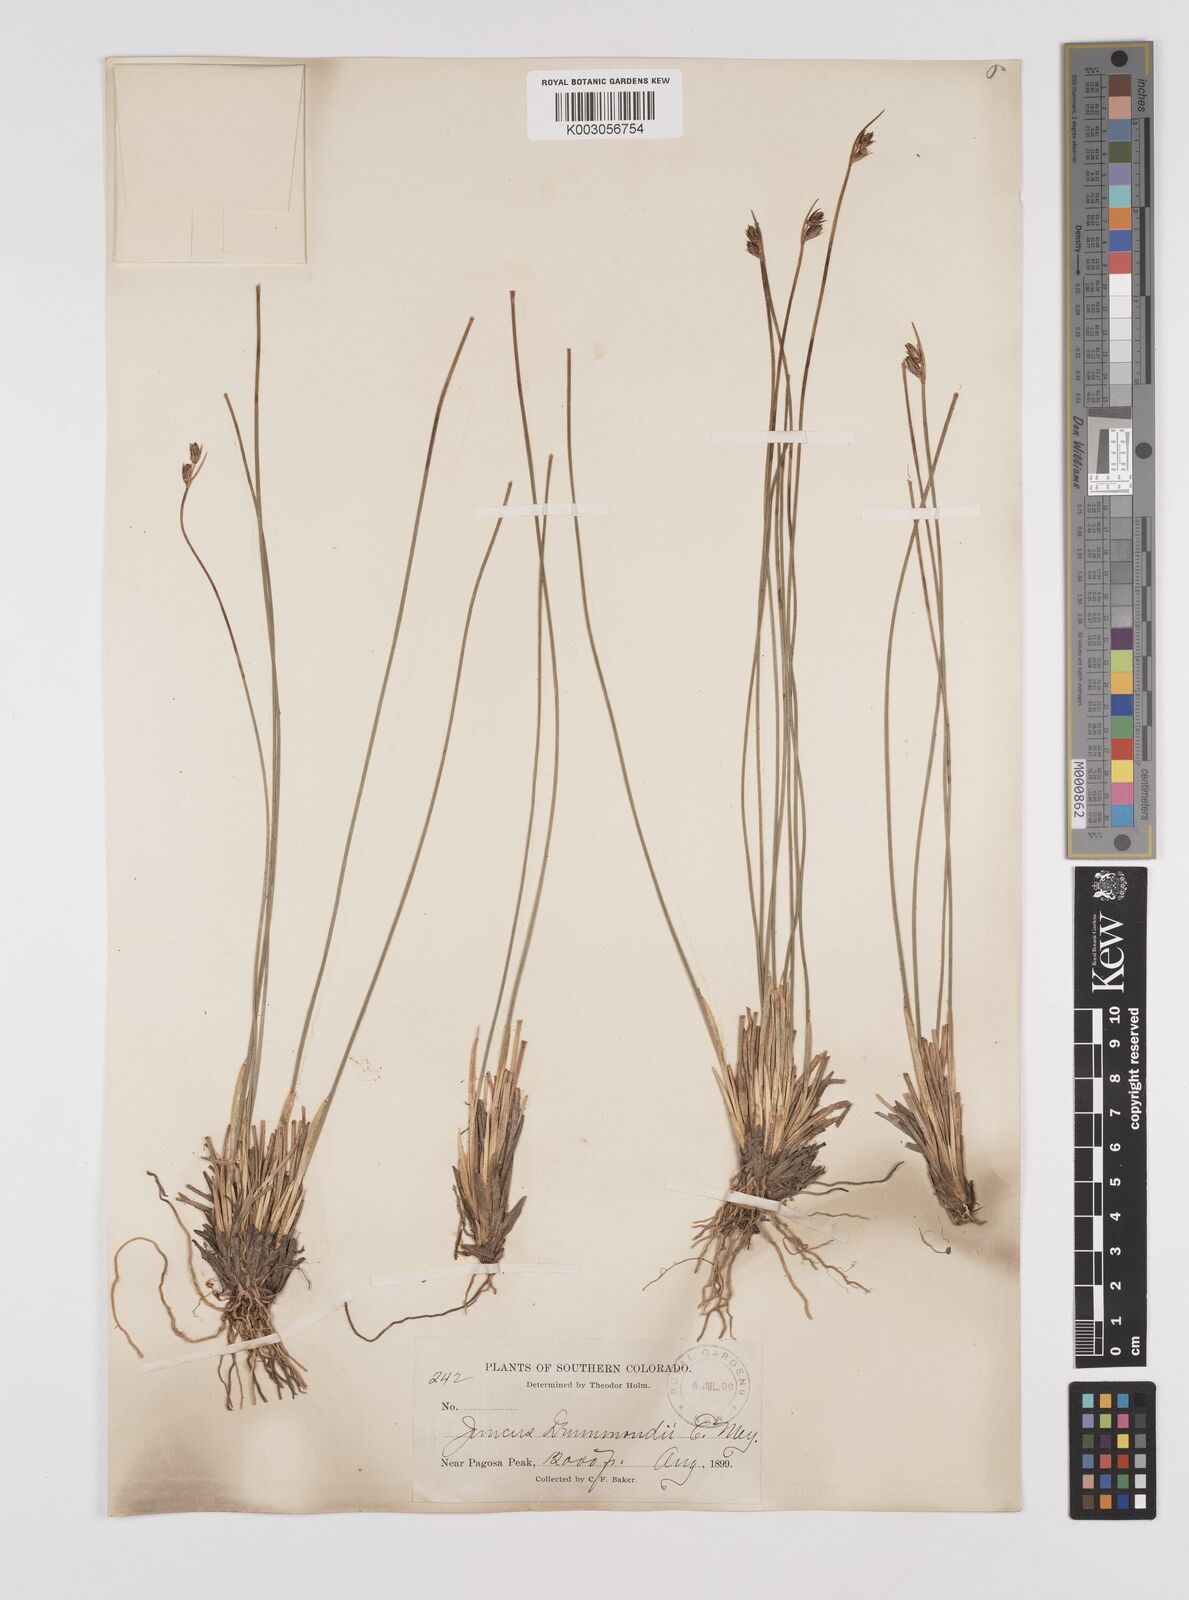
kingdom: Plantae
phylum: Tracheophyta
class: Liliopsida
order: Poales
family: Juncaceae
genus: Juncus
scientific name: Juncus drummondii
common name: Drummond's rush
